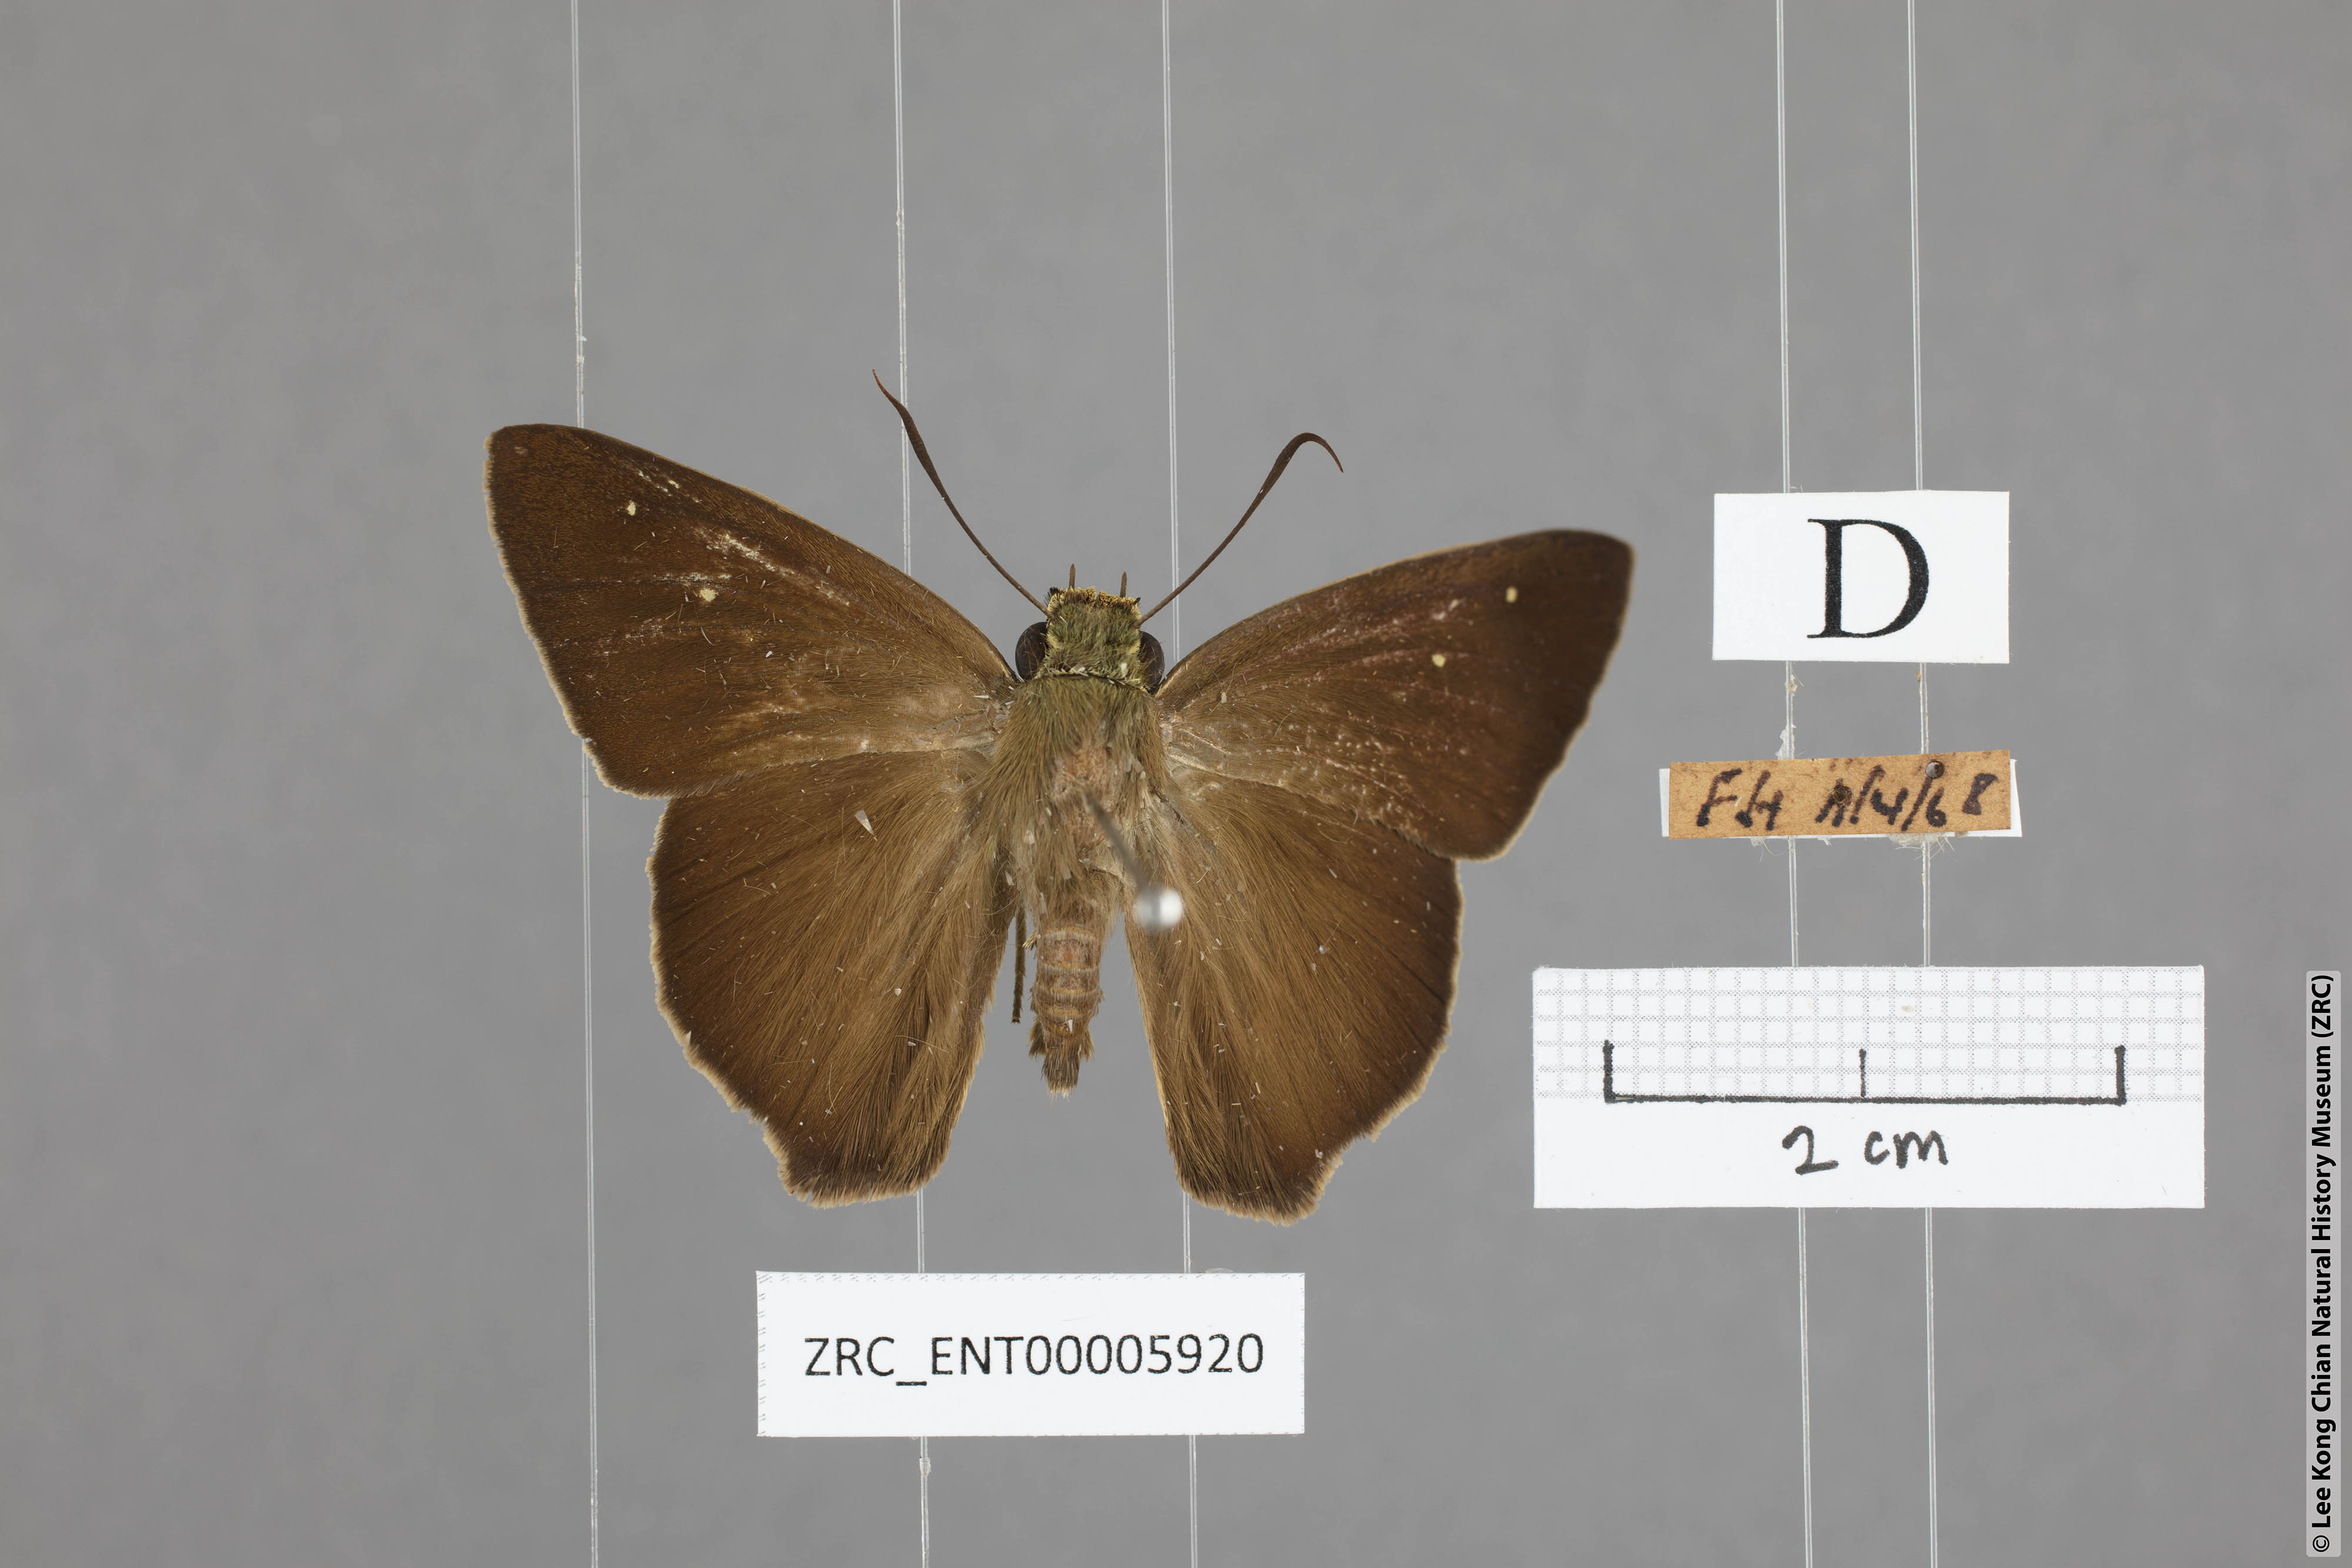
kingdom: Animalia
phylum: Arthropoda
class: Insecta
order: Lepidoptera
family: Hesperiidae
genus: Hasora
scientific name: Hasora vitta
